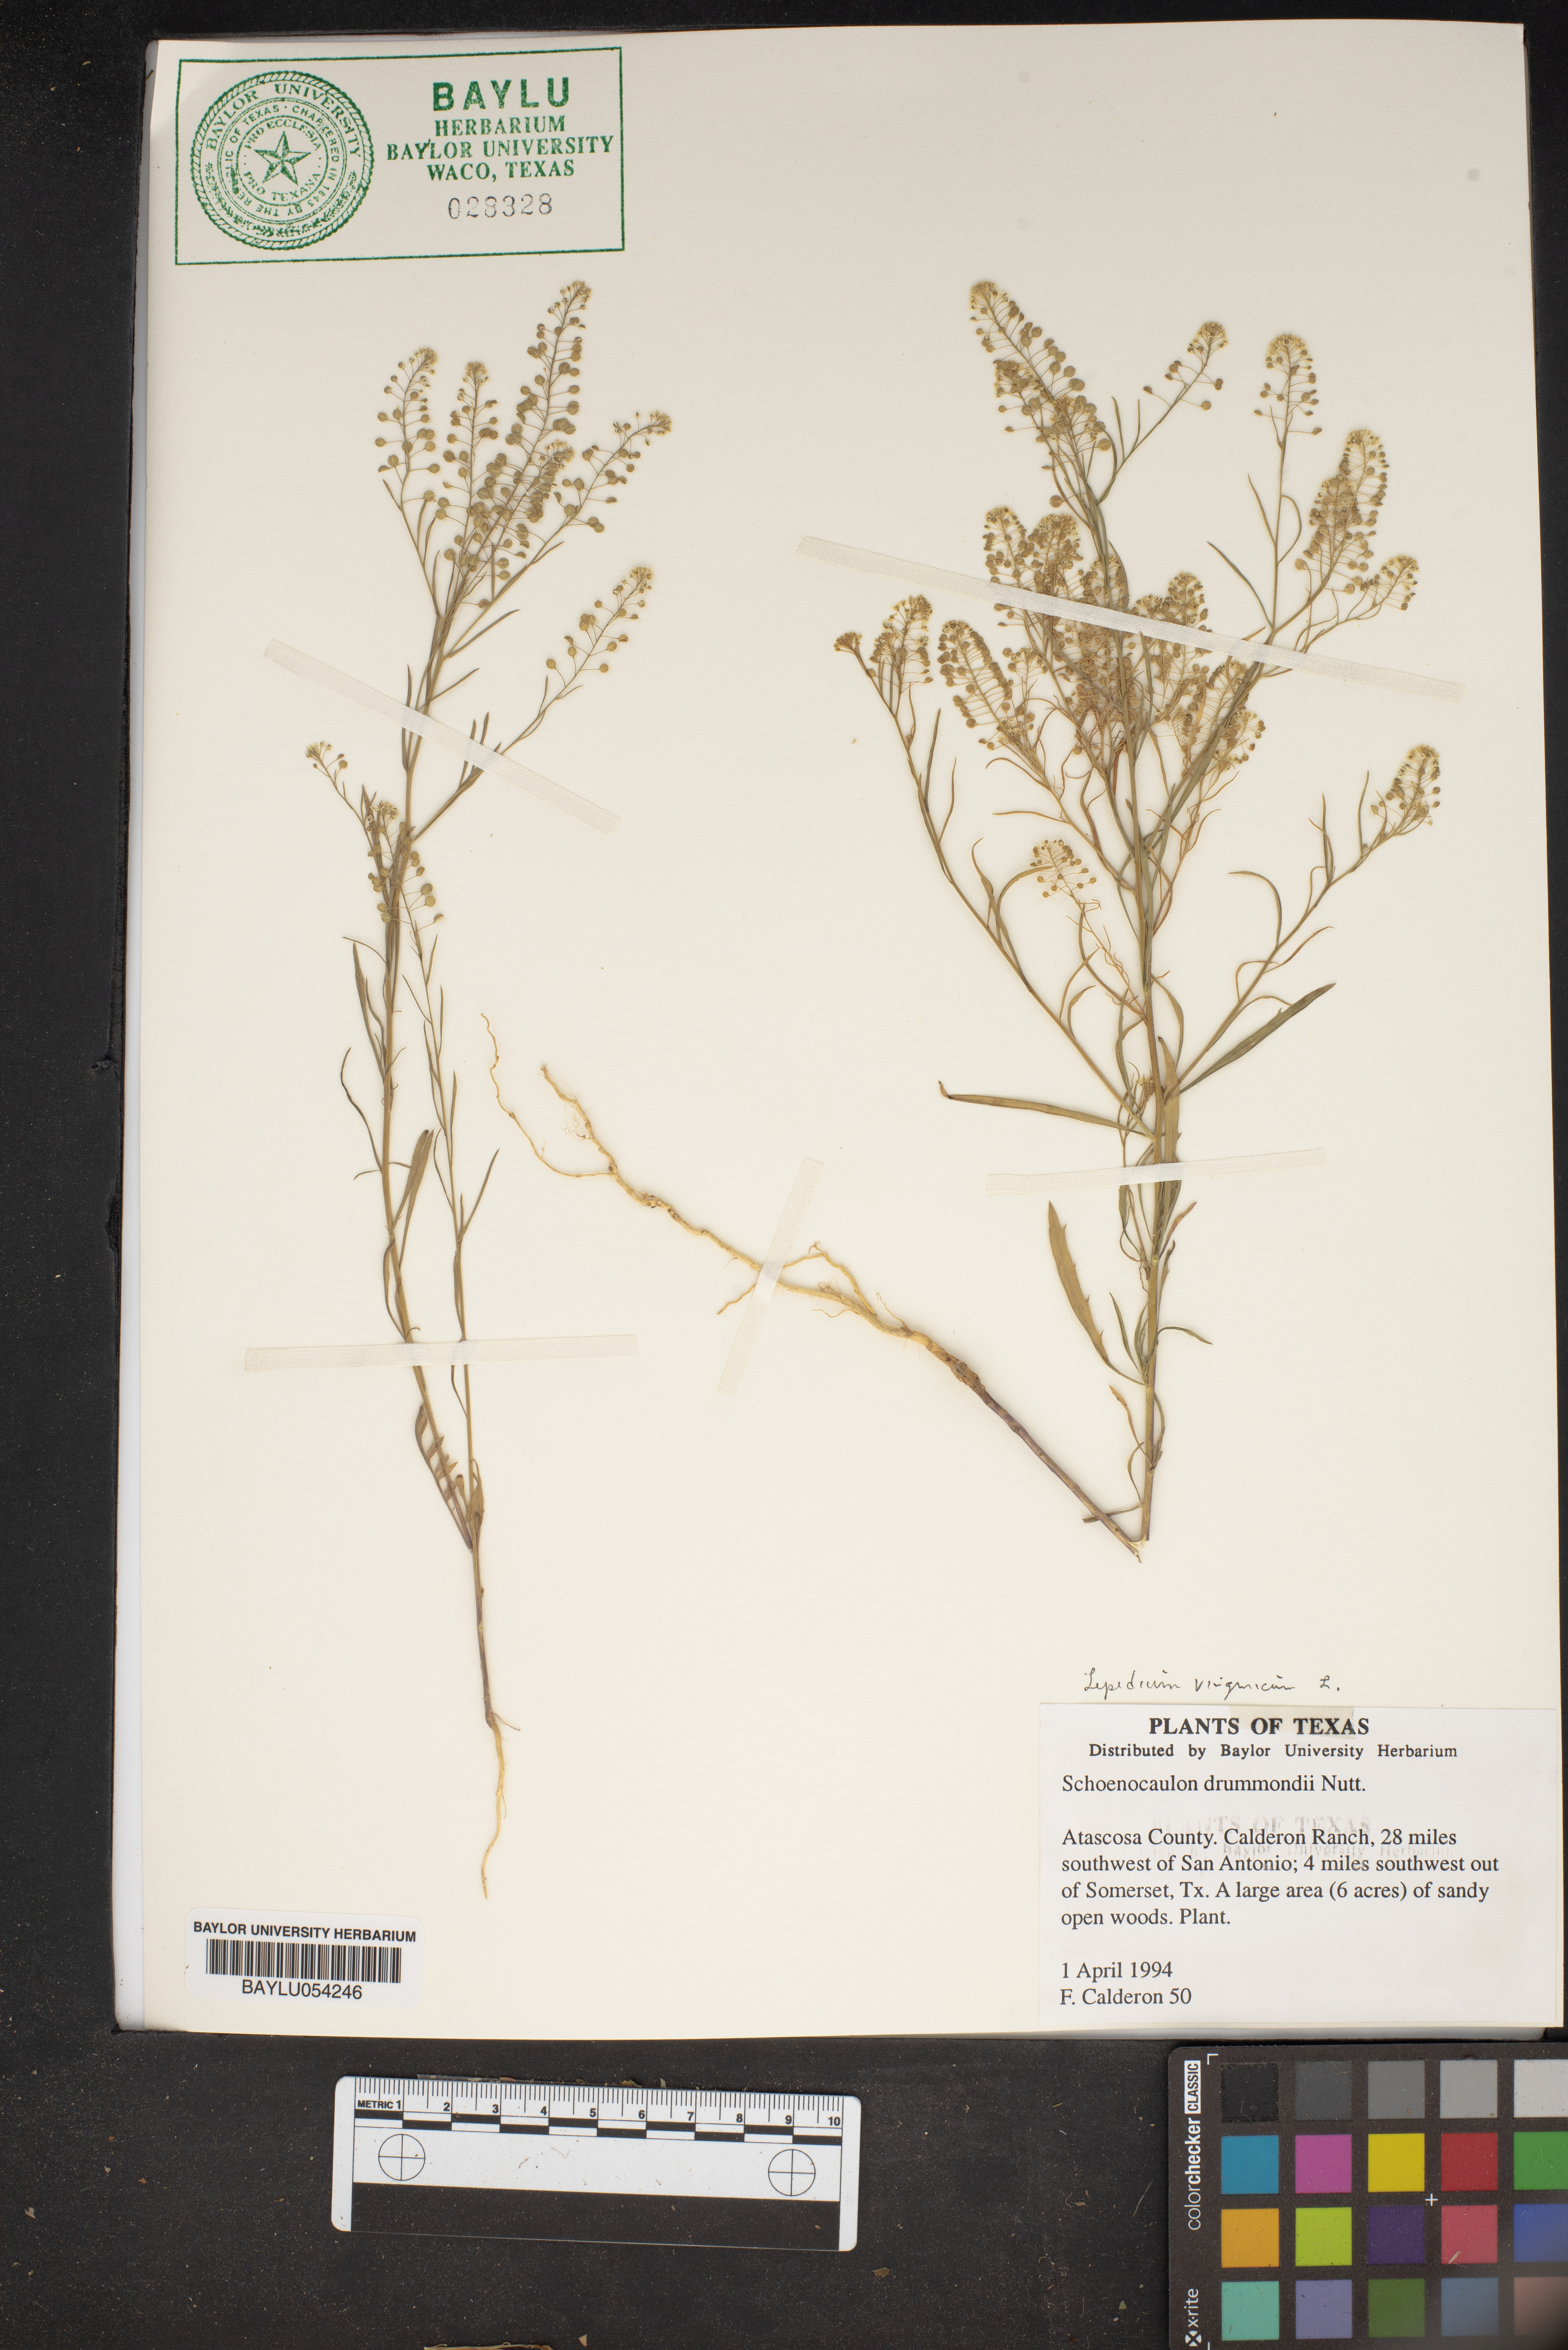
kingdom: Plantae
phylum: Tracheophyta
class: Liliopsida
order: Liliales
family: Melanthiaceae
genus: Schoenocaulon
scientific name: Schoenocaulon ghiesbreghtii
